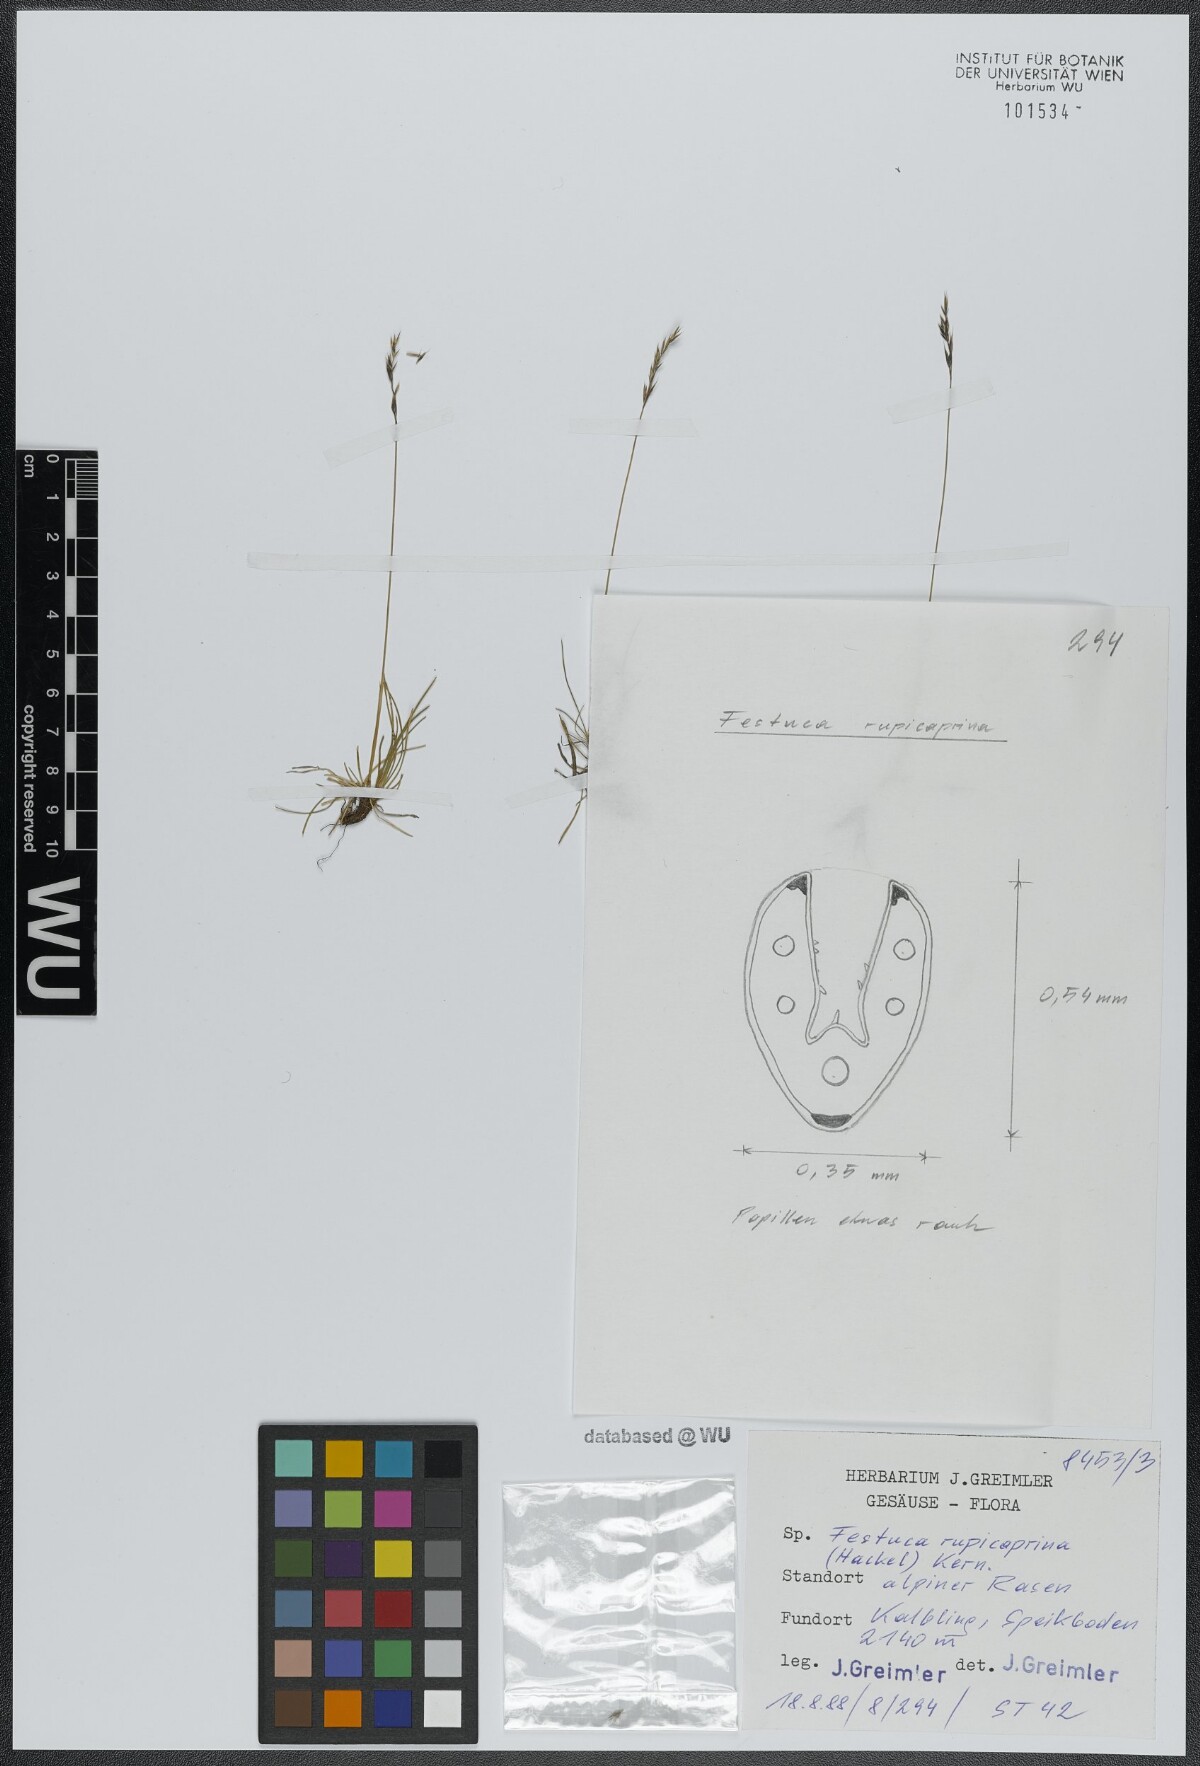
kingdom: Plantae
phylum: Tracheophyta
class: Liliopsida
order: Poales
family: Poaceae
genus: Festuca
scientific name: Festuca rupicaprina
